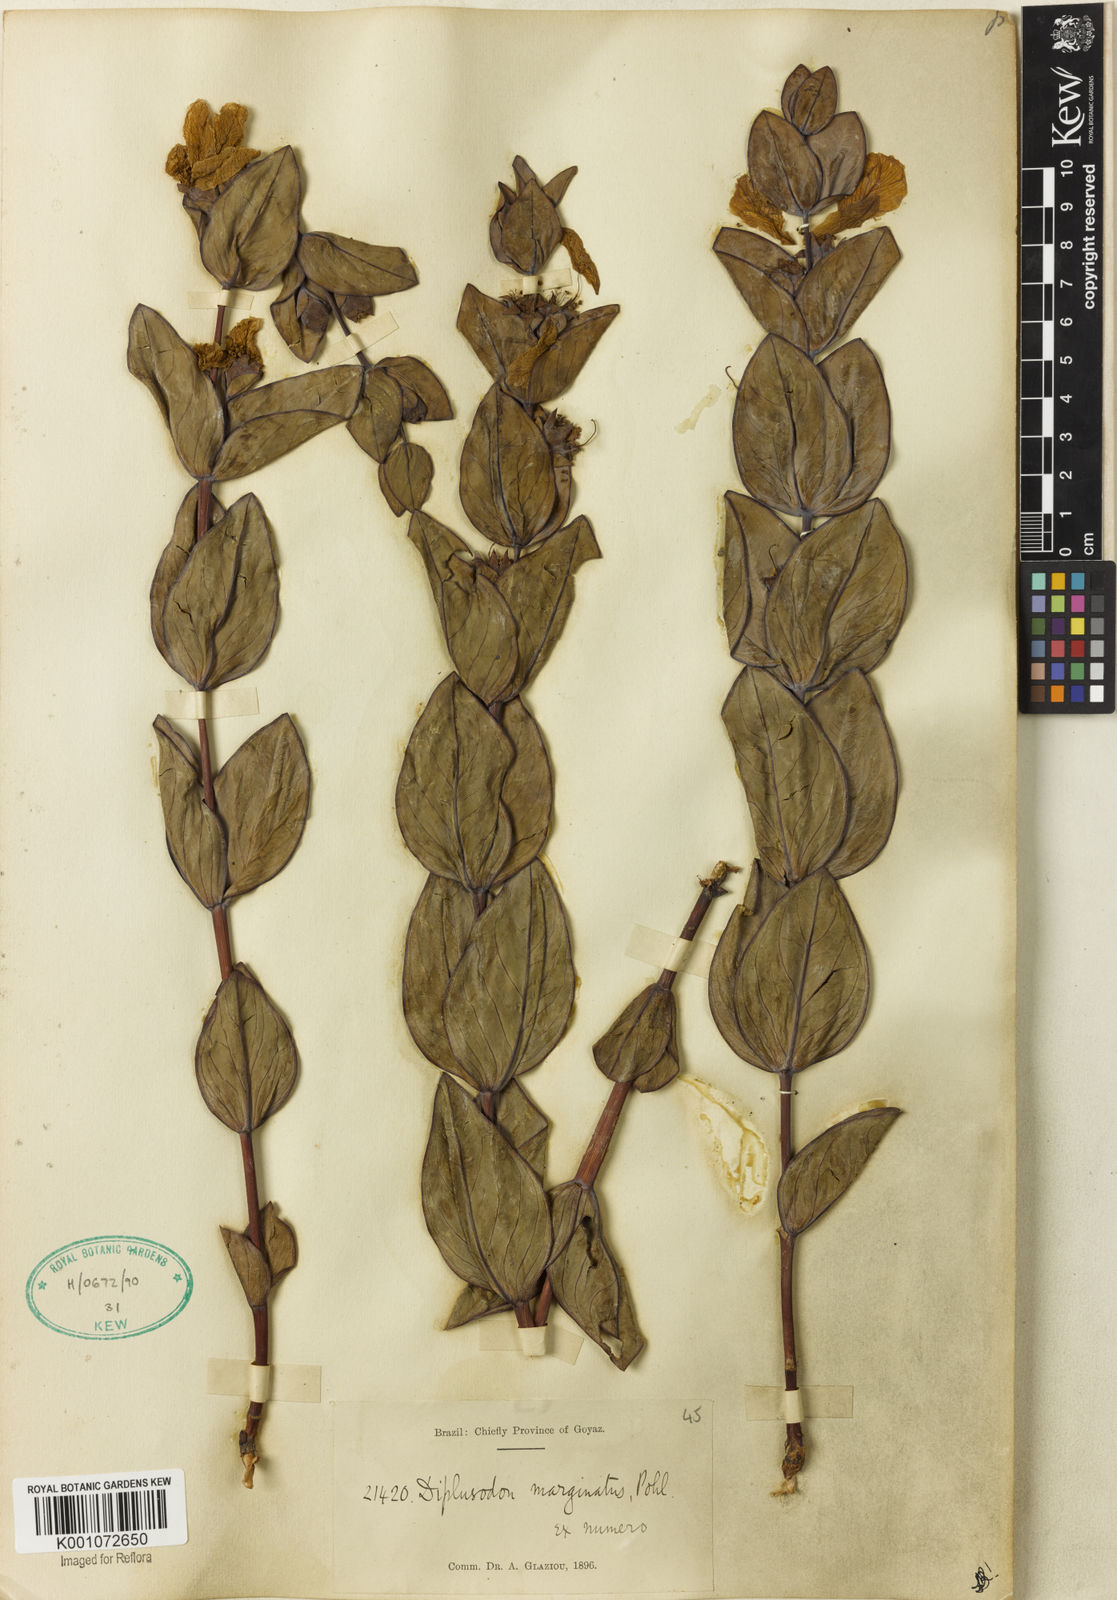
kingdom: Plantae
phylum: Tracheophyta
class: Magnoliopsida
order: Myrtales
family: Lythraceae
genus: Diplusodon
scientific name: Diplusodon marginatus
